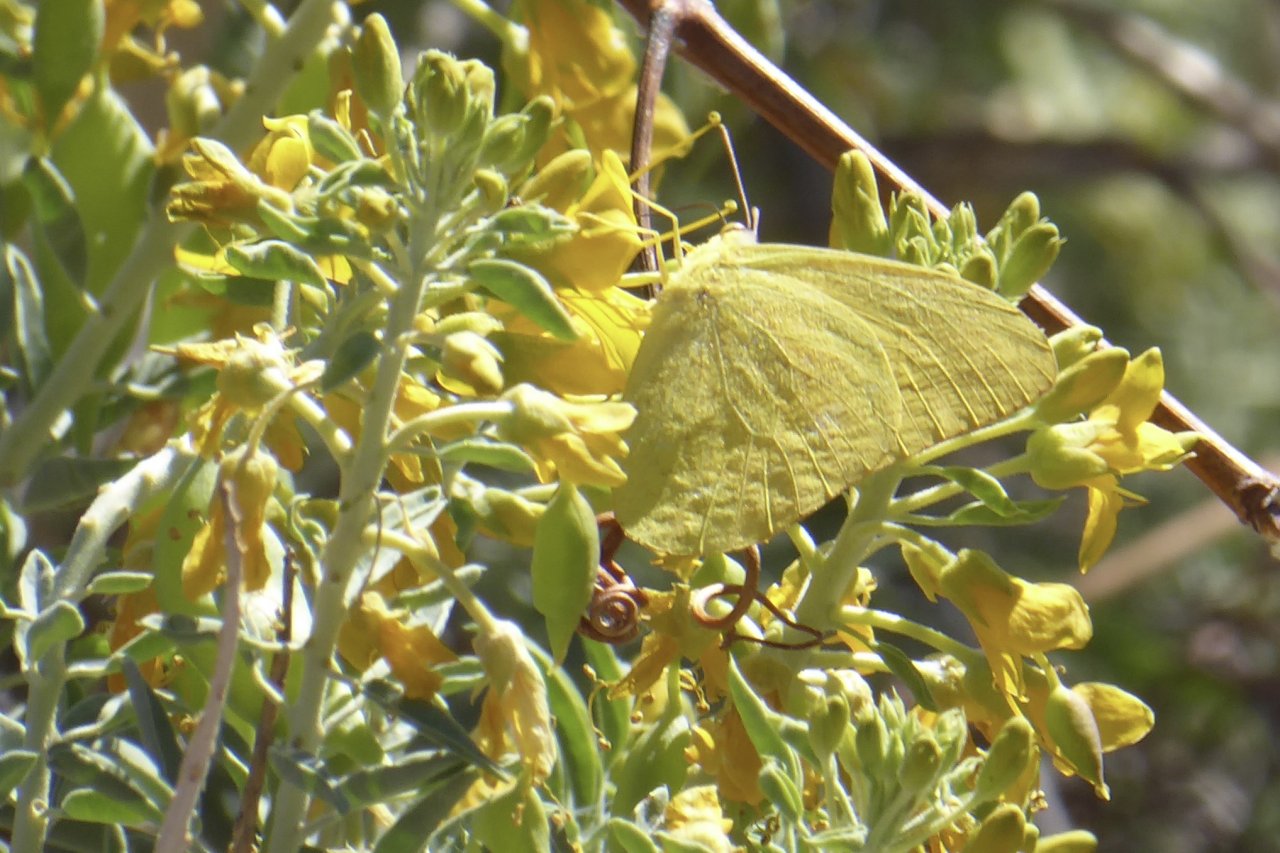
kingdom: Animalia
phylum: Arthropoda
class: Insecta
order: Lepidoptera
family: Pieridae
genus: Phoebis
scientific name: Phoebis agarithe
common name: Large Orange Sulphur
